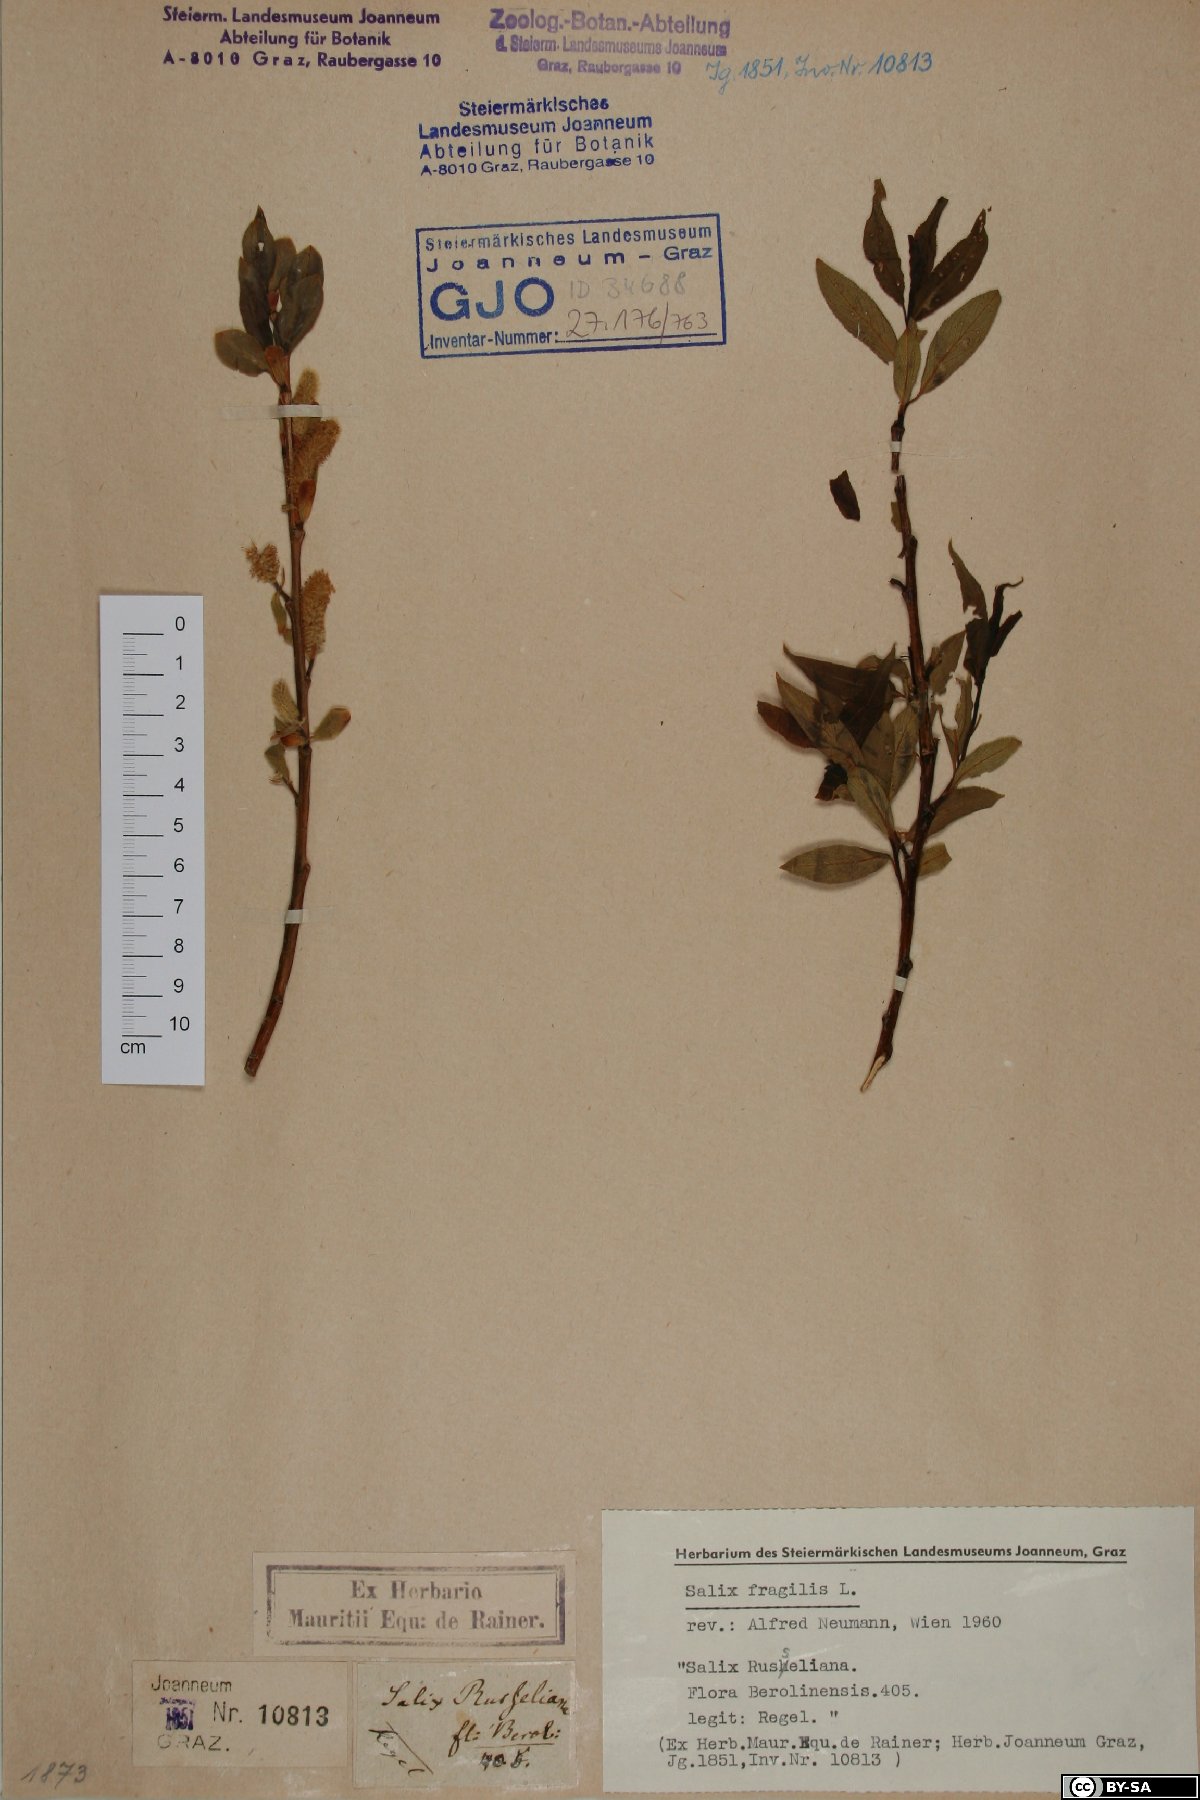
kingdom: Plantae
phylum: Tracheophyta
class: Magnoliopsida
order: Malpighiales
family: Salicaceae
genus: Salix
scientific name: Salix fragilis
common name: Crack willow
